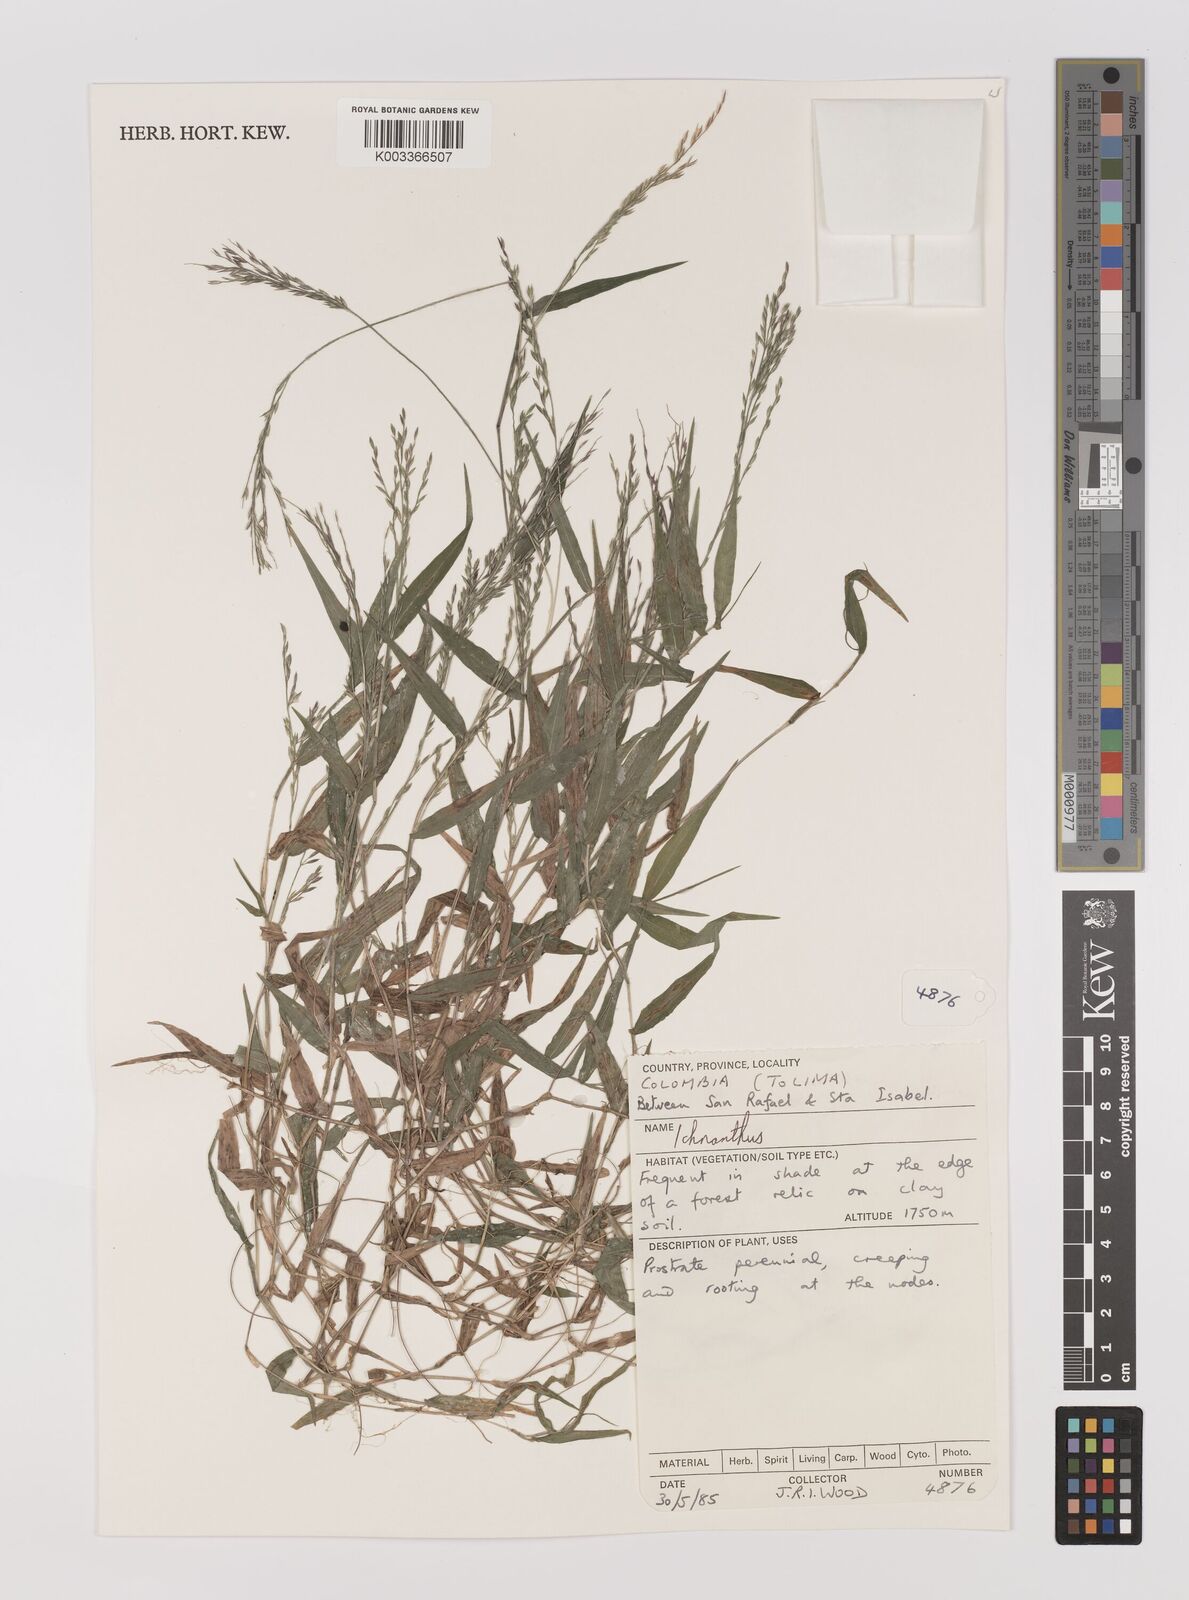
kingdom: Plantae
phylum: Tracheophyta
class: Liliopsida
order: Poales
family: Poaceae
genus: Ichnanthus
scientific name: Ichnanthus
